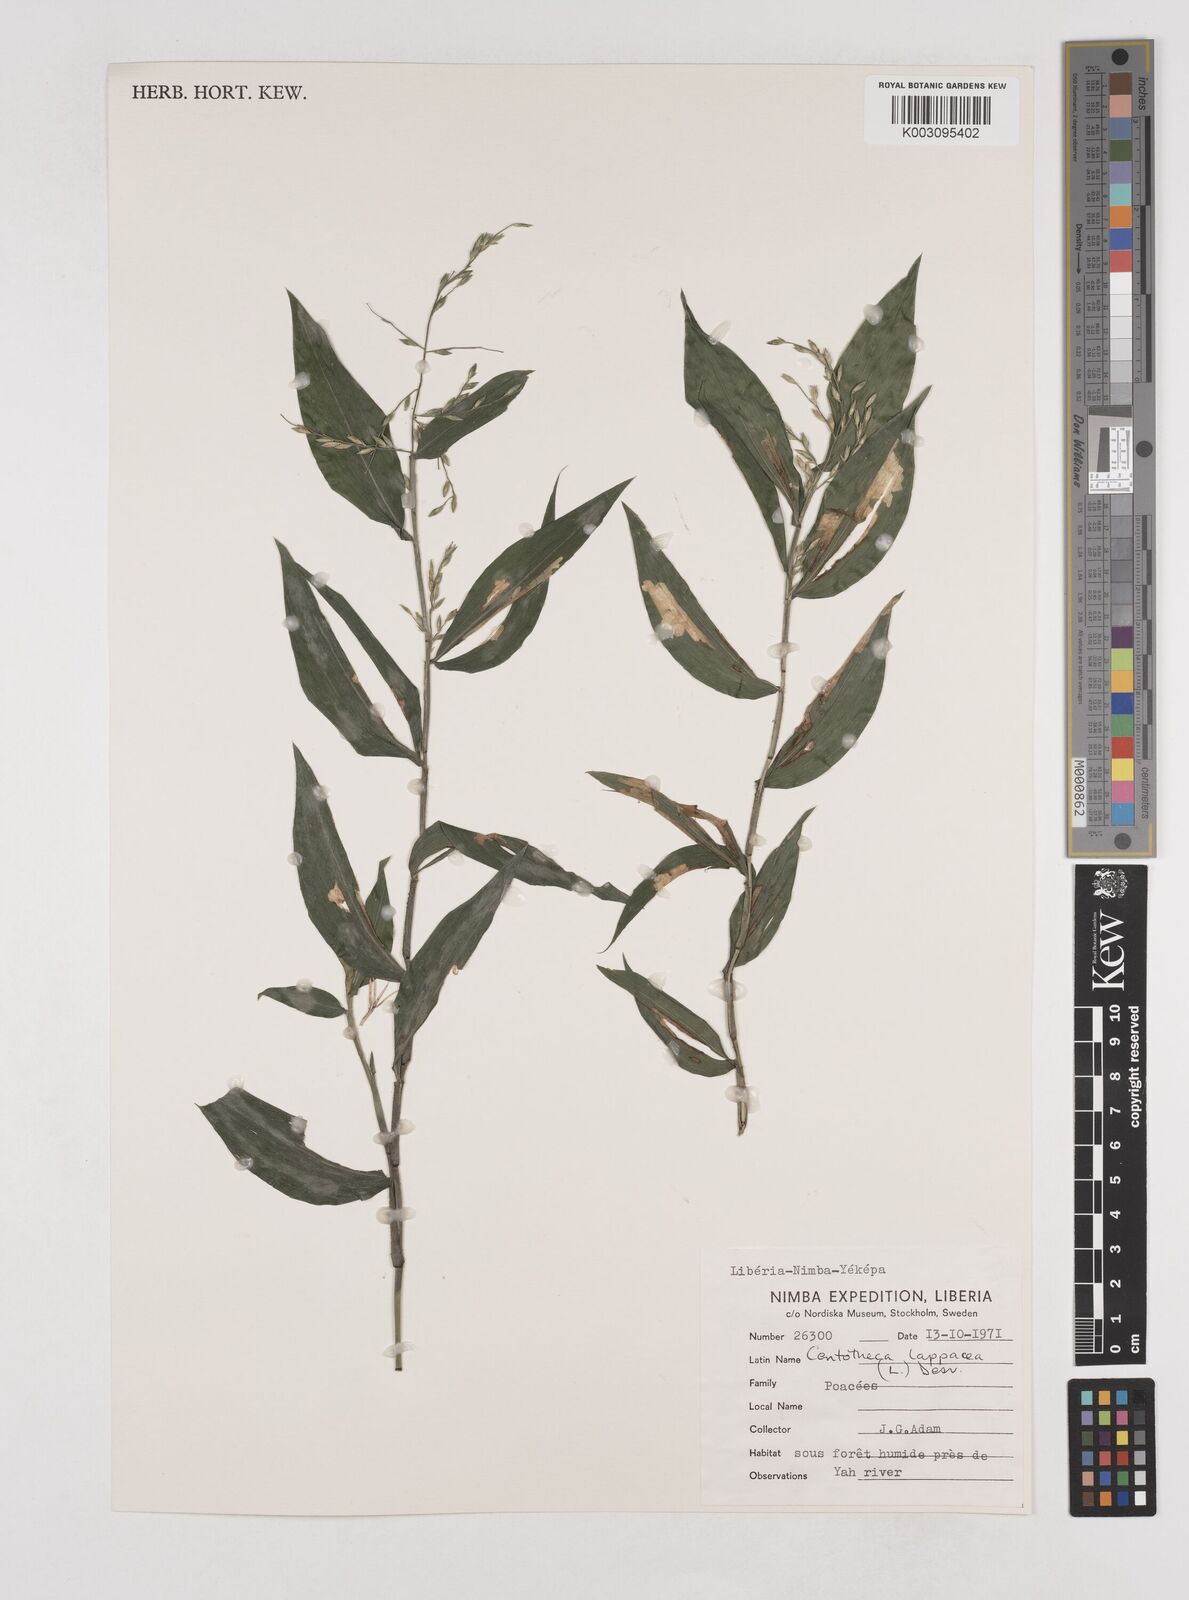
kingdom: Plantae
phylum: Tracheophyta
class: Liliopsida
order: Poales
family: Poaceae
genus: Centotheca
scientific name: Centotheca lappacea
